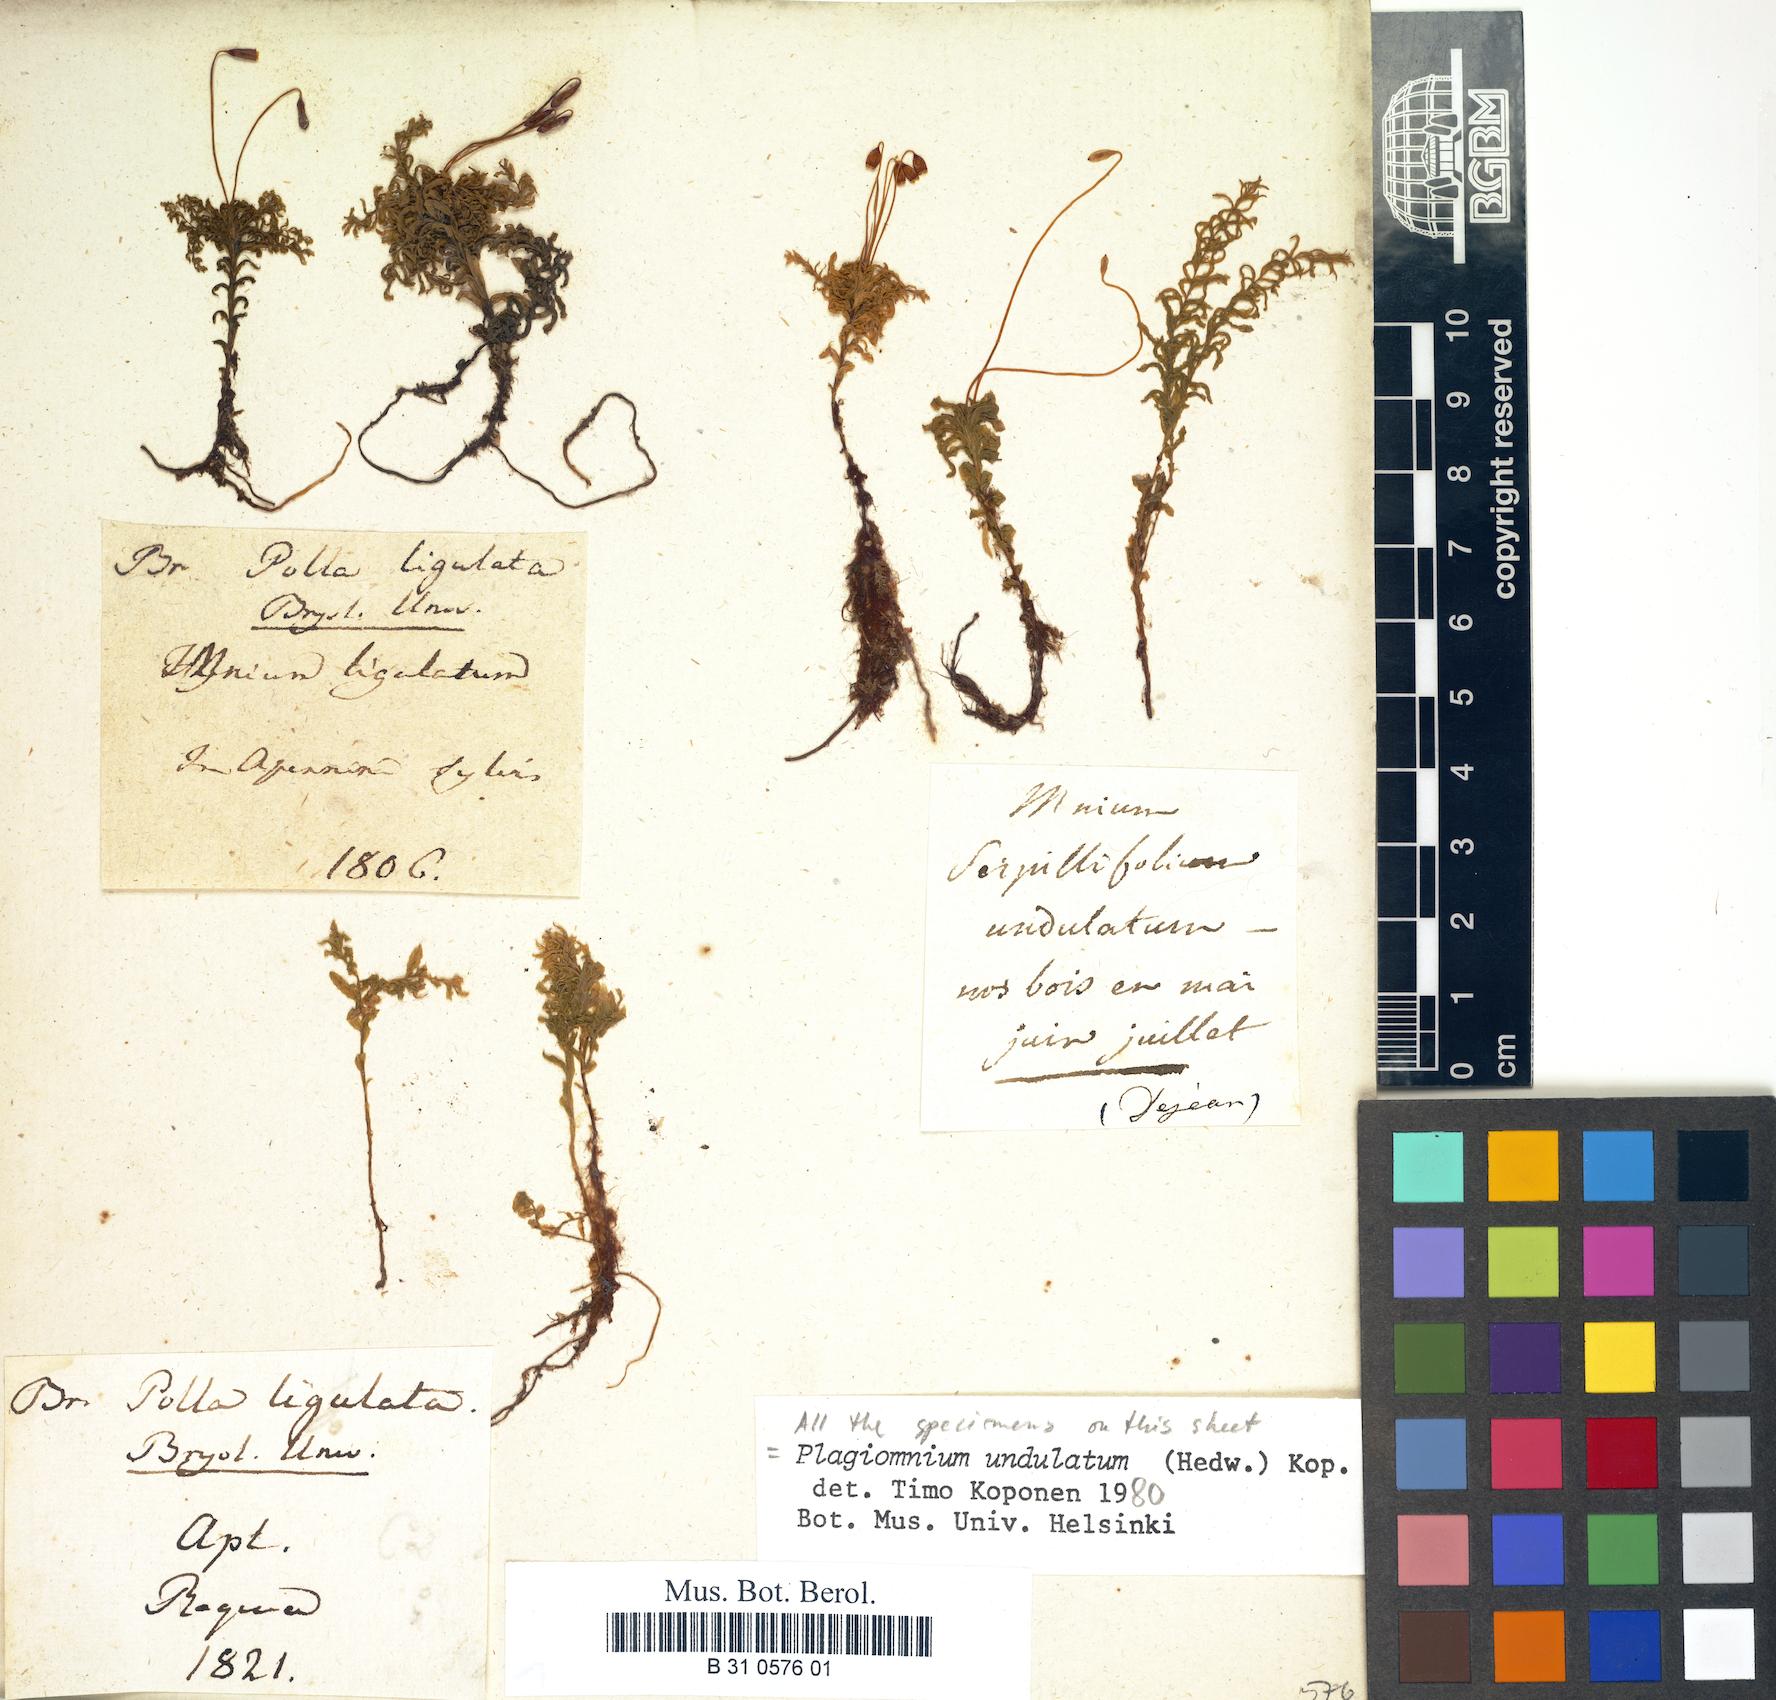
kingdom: Plantae
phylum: Bryophyta
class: Bryopsida
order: Bryales
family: Mniaceae
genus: Plagiomnium
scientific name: Plagiomnium undulatum
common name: Hart's-tongue thyme-moss
